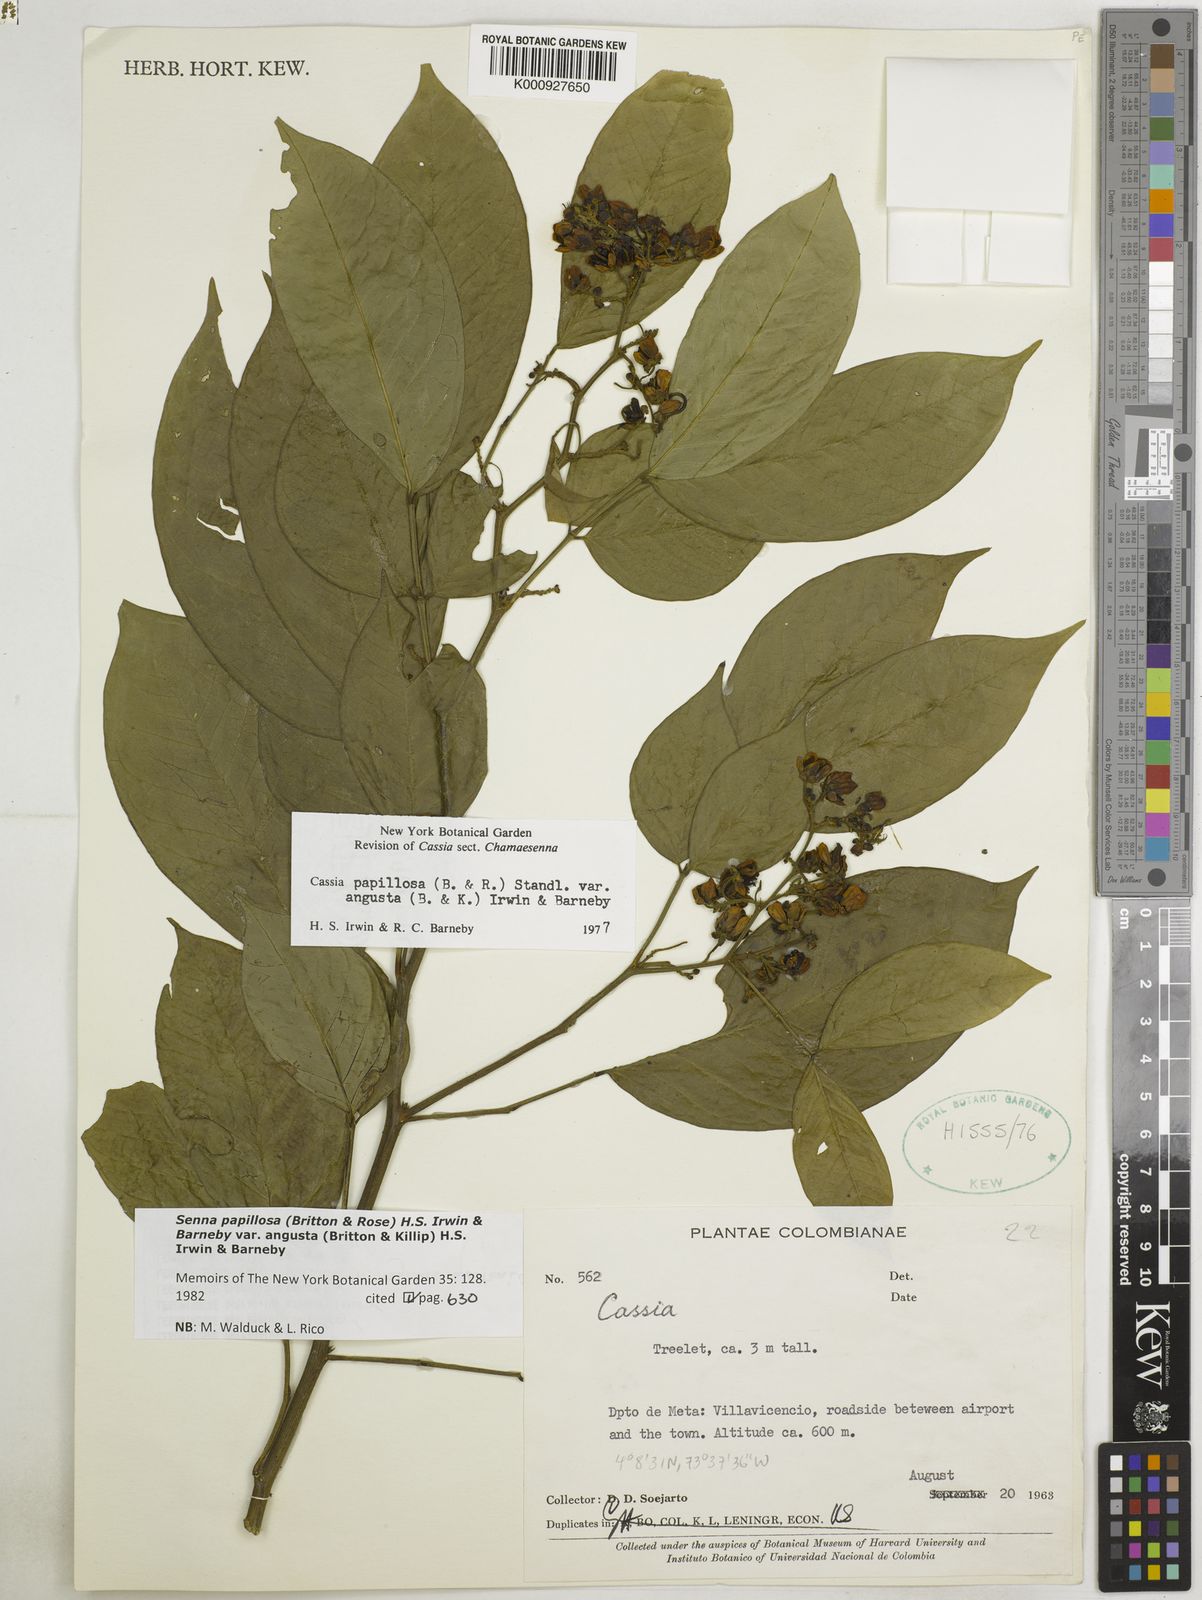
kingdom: Plantae
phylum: Tracheophyta
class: Magnoliopsida
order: Fabales
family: Fabaceae
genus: Senna
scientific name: Senna papillosa
